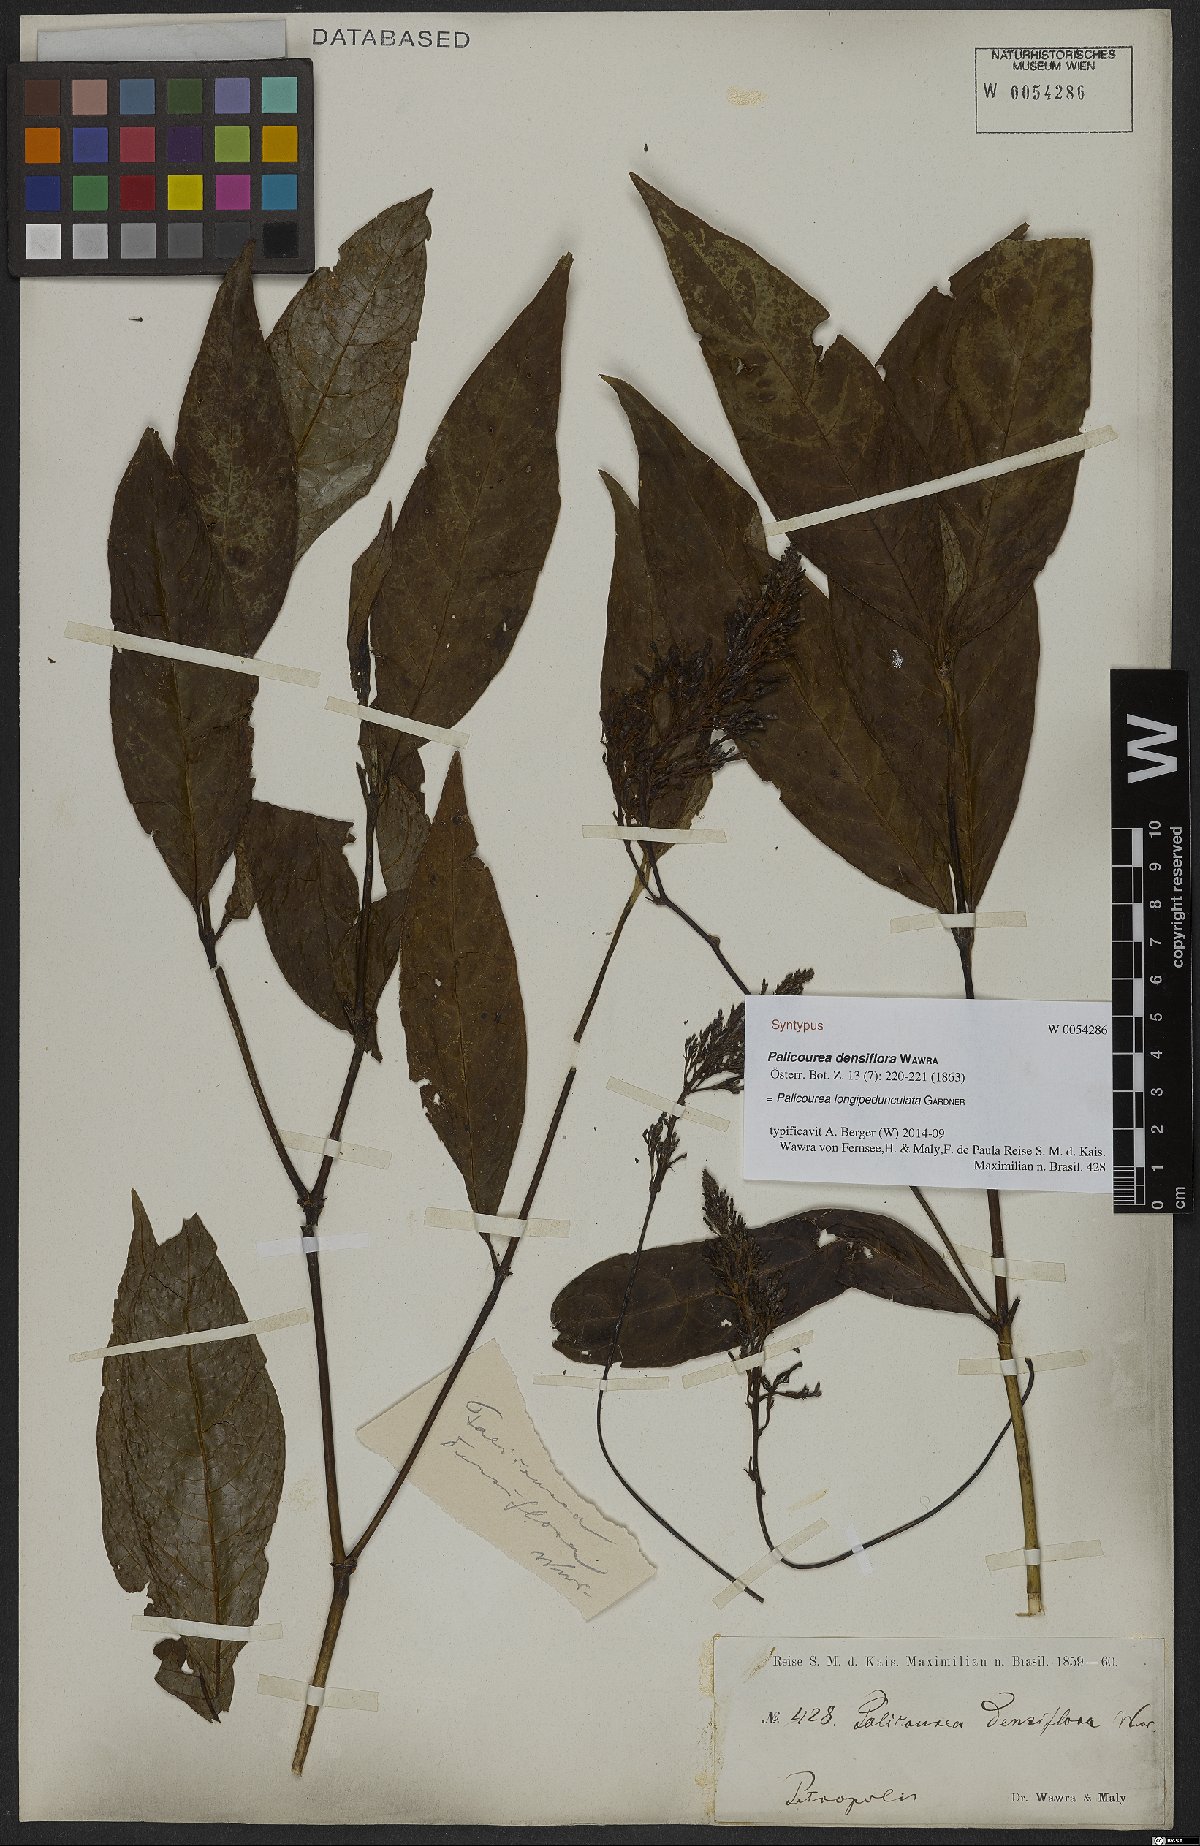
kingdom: Plantae
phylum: Tracheophyta
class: Magnoliopsida
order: Gentianales
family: Rubiaceae
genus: Palicourea
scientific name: Palicourea longipedunculata
